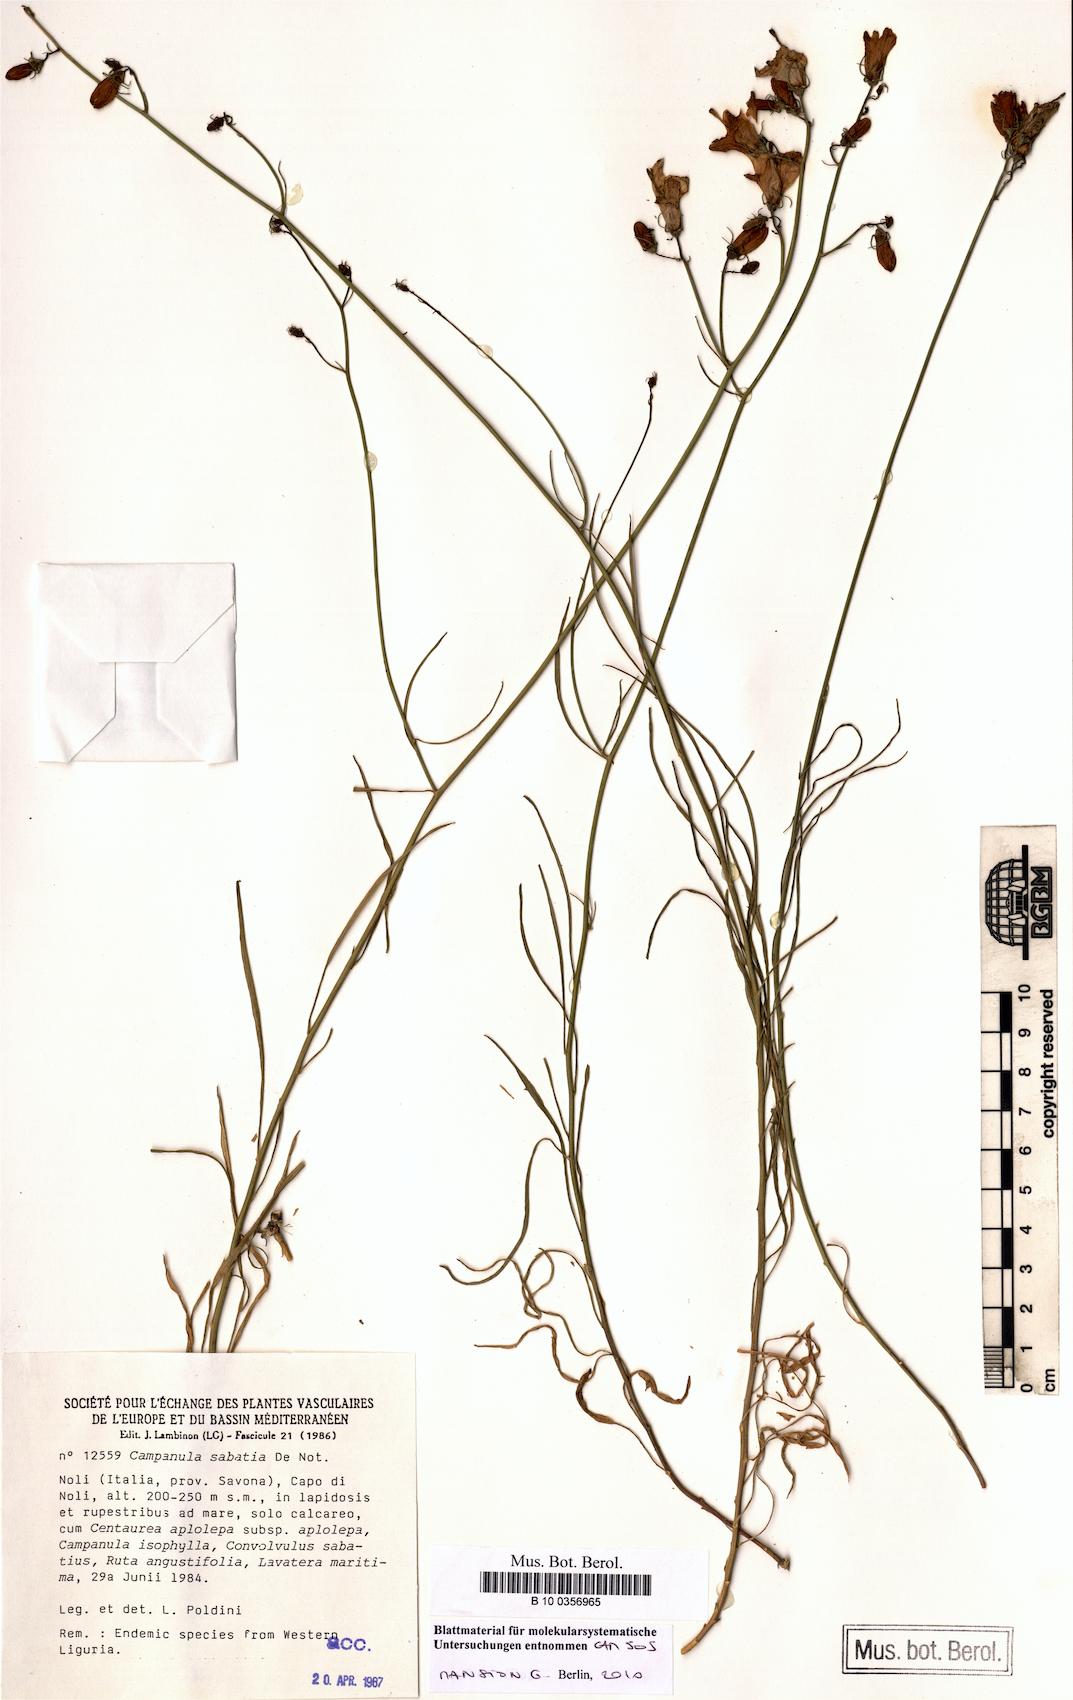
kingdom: Plantae
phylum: Tracheophyta
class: Magnoliopsida
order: Asterales
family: Campanulaceae
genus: Campanula
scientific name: Campanula sabatia
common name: Savona hare-bell
